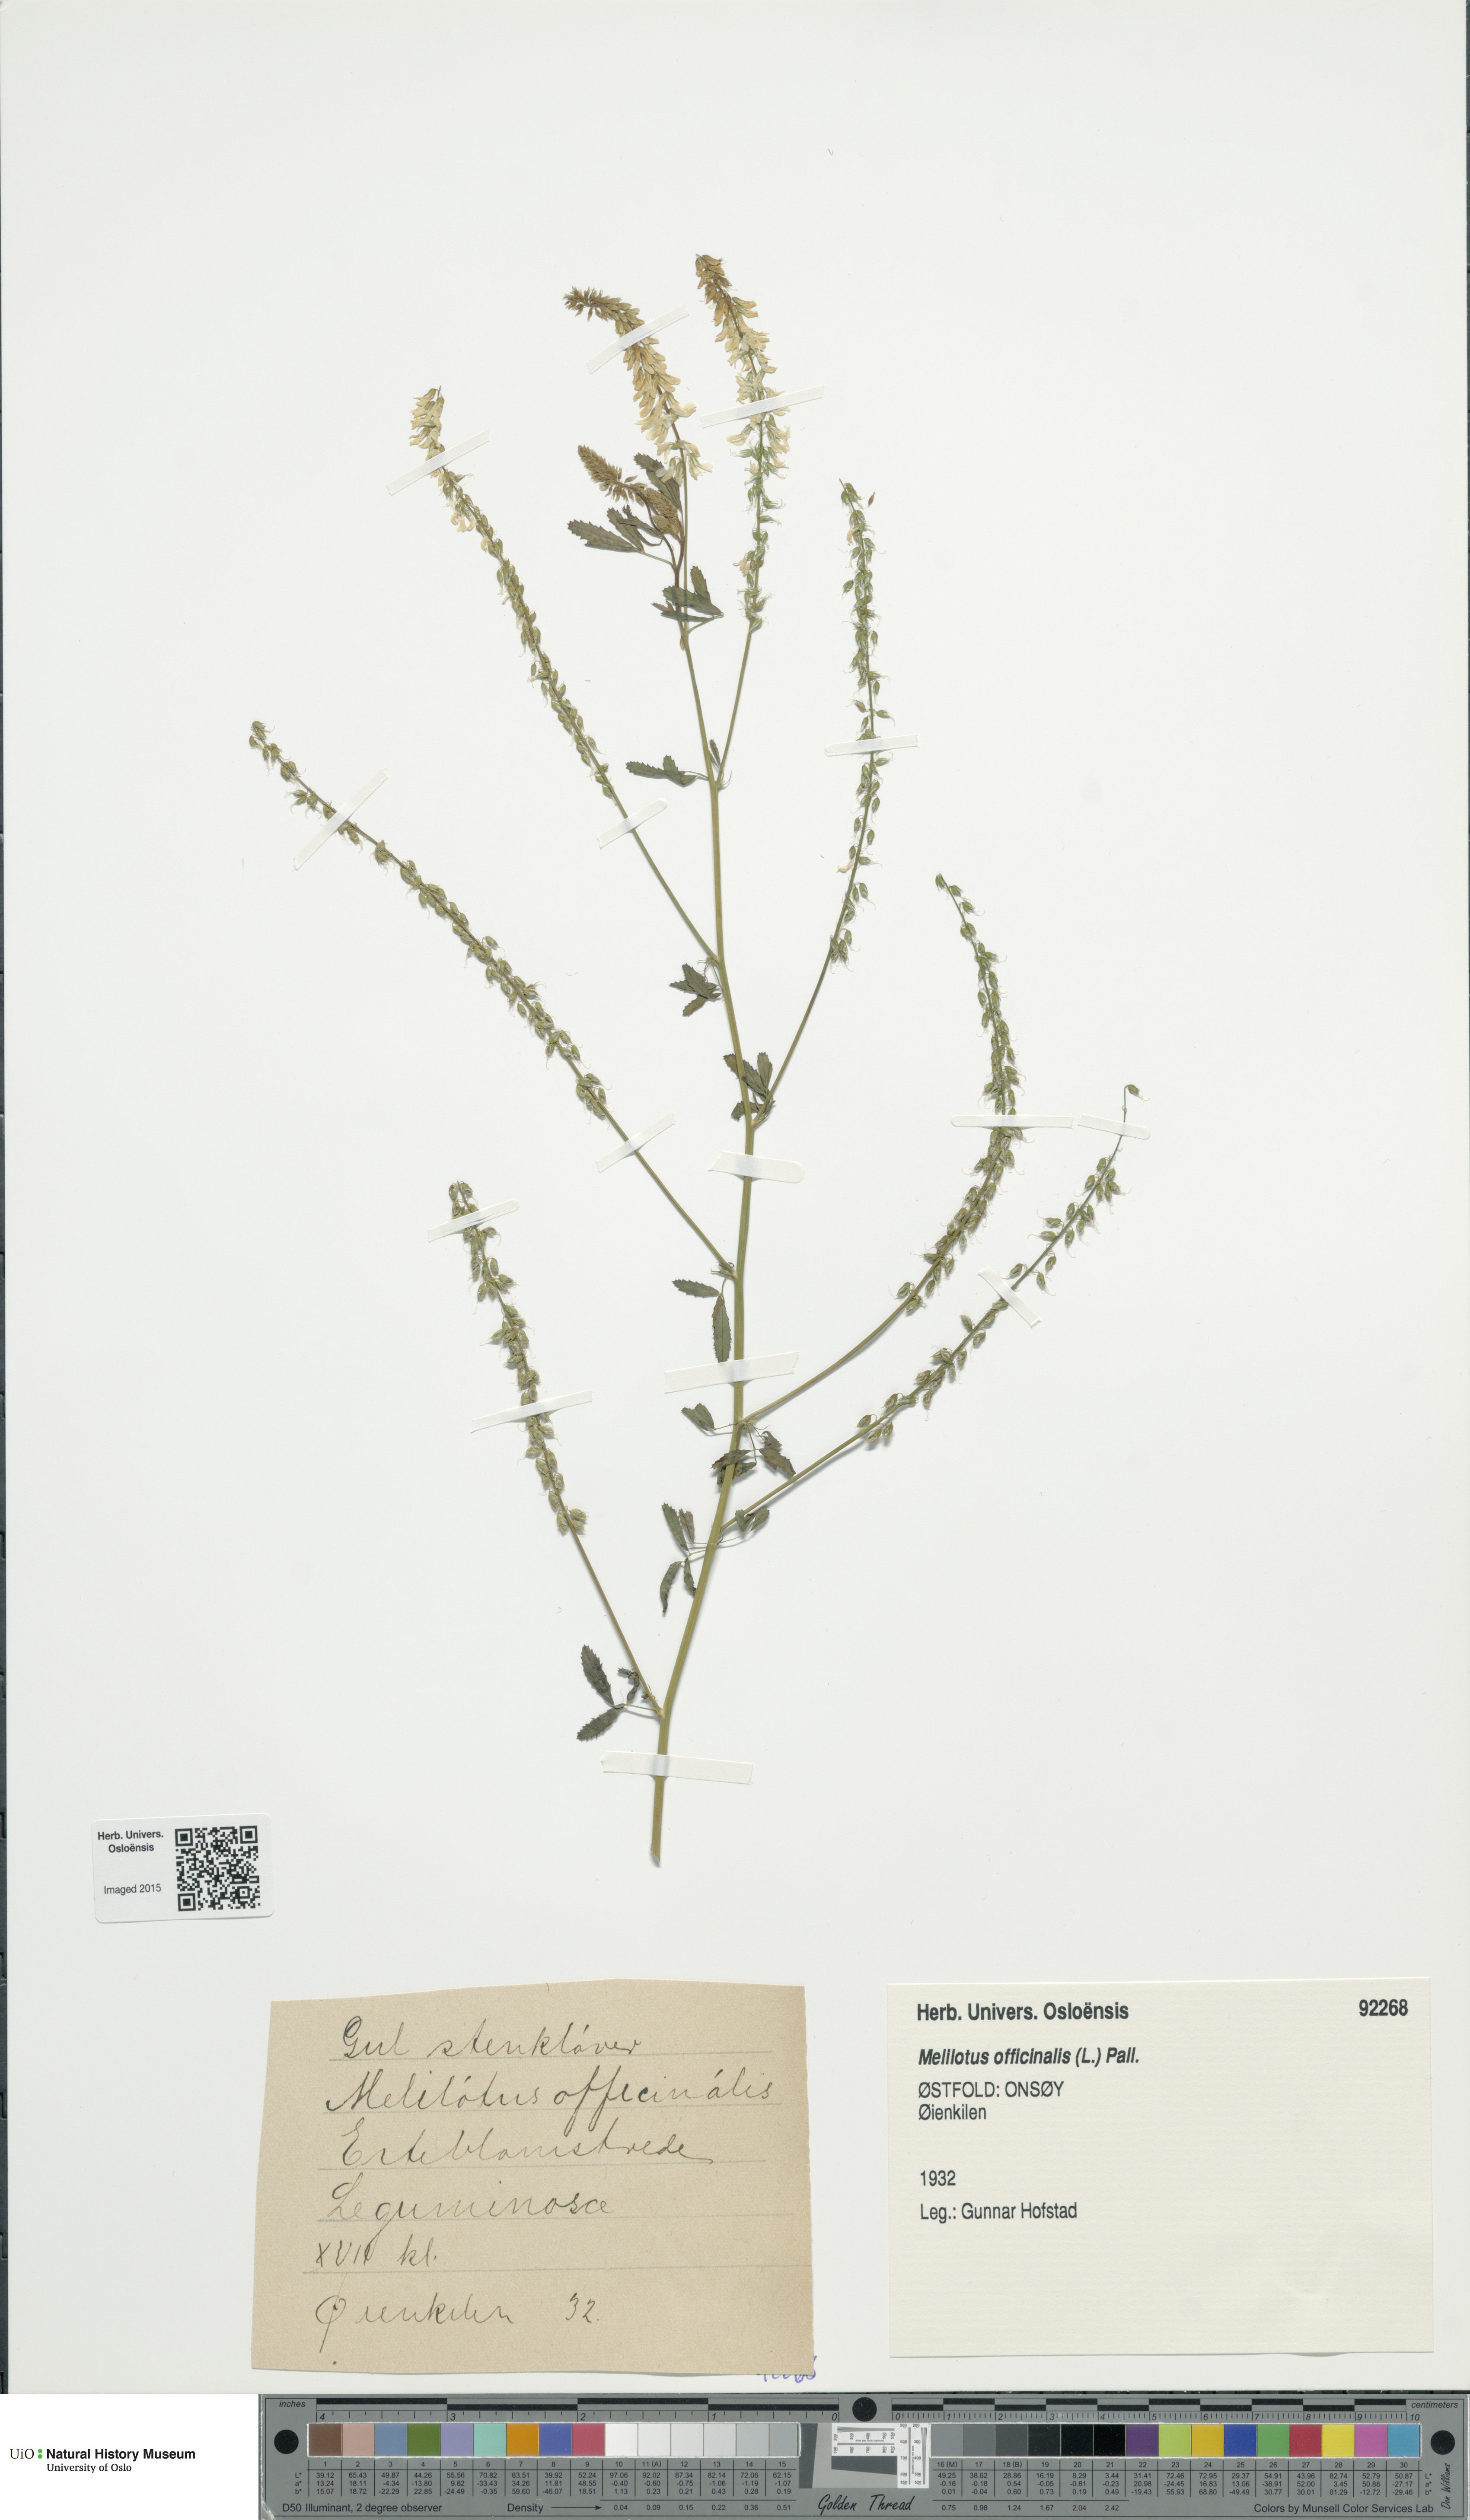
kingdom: Plantae
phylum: Tracheophyta
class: Magnoliopsida
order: Fabales
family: Fabaceae
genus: Melilotus
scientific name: Melilotus officinalis
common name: Sweetclover
